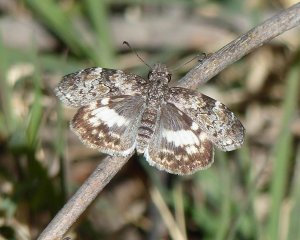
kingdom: Animalia
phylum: Arthropoda
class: Insecta
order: Lepidoptera
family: Hesperiidae
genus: Chiomara
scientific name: Chiomara asychis
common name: White-patched Skipper
